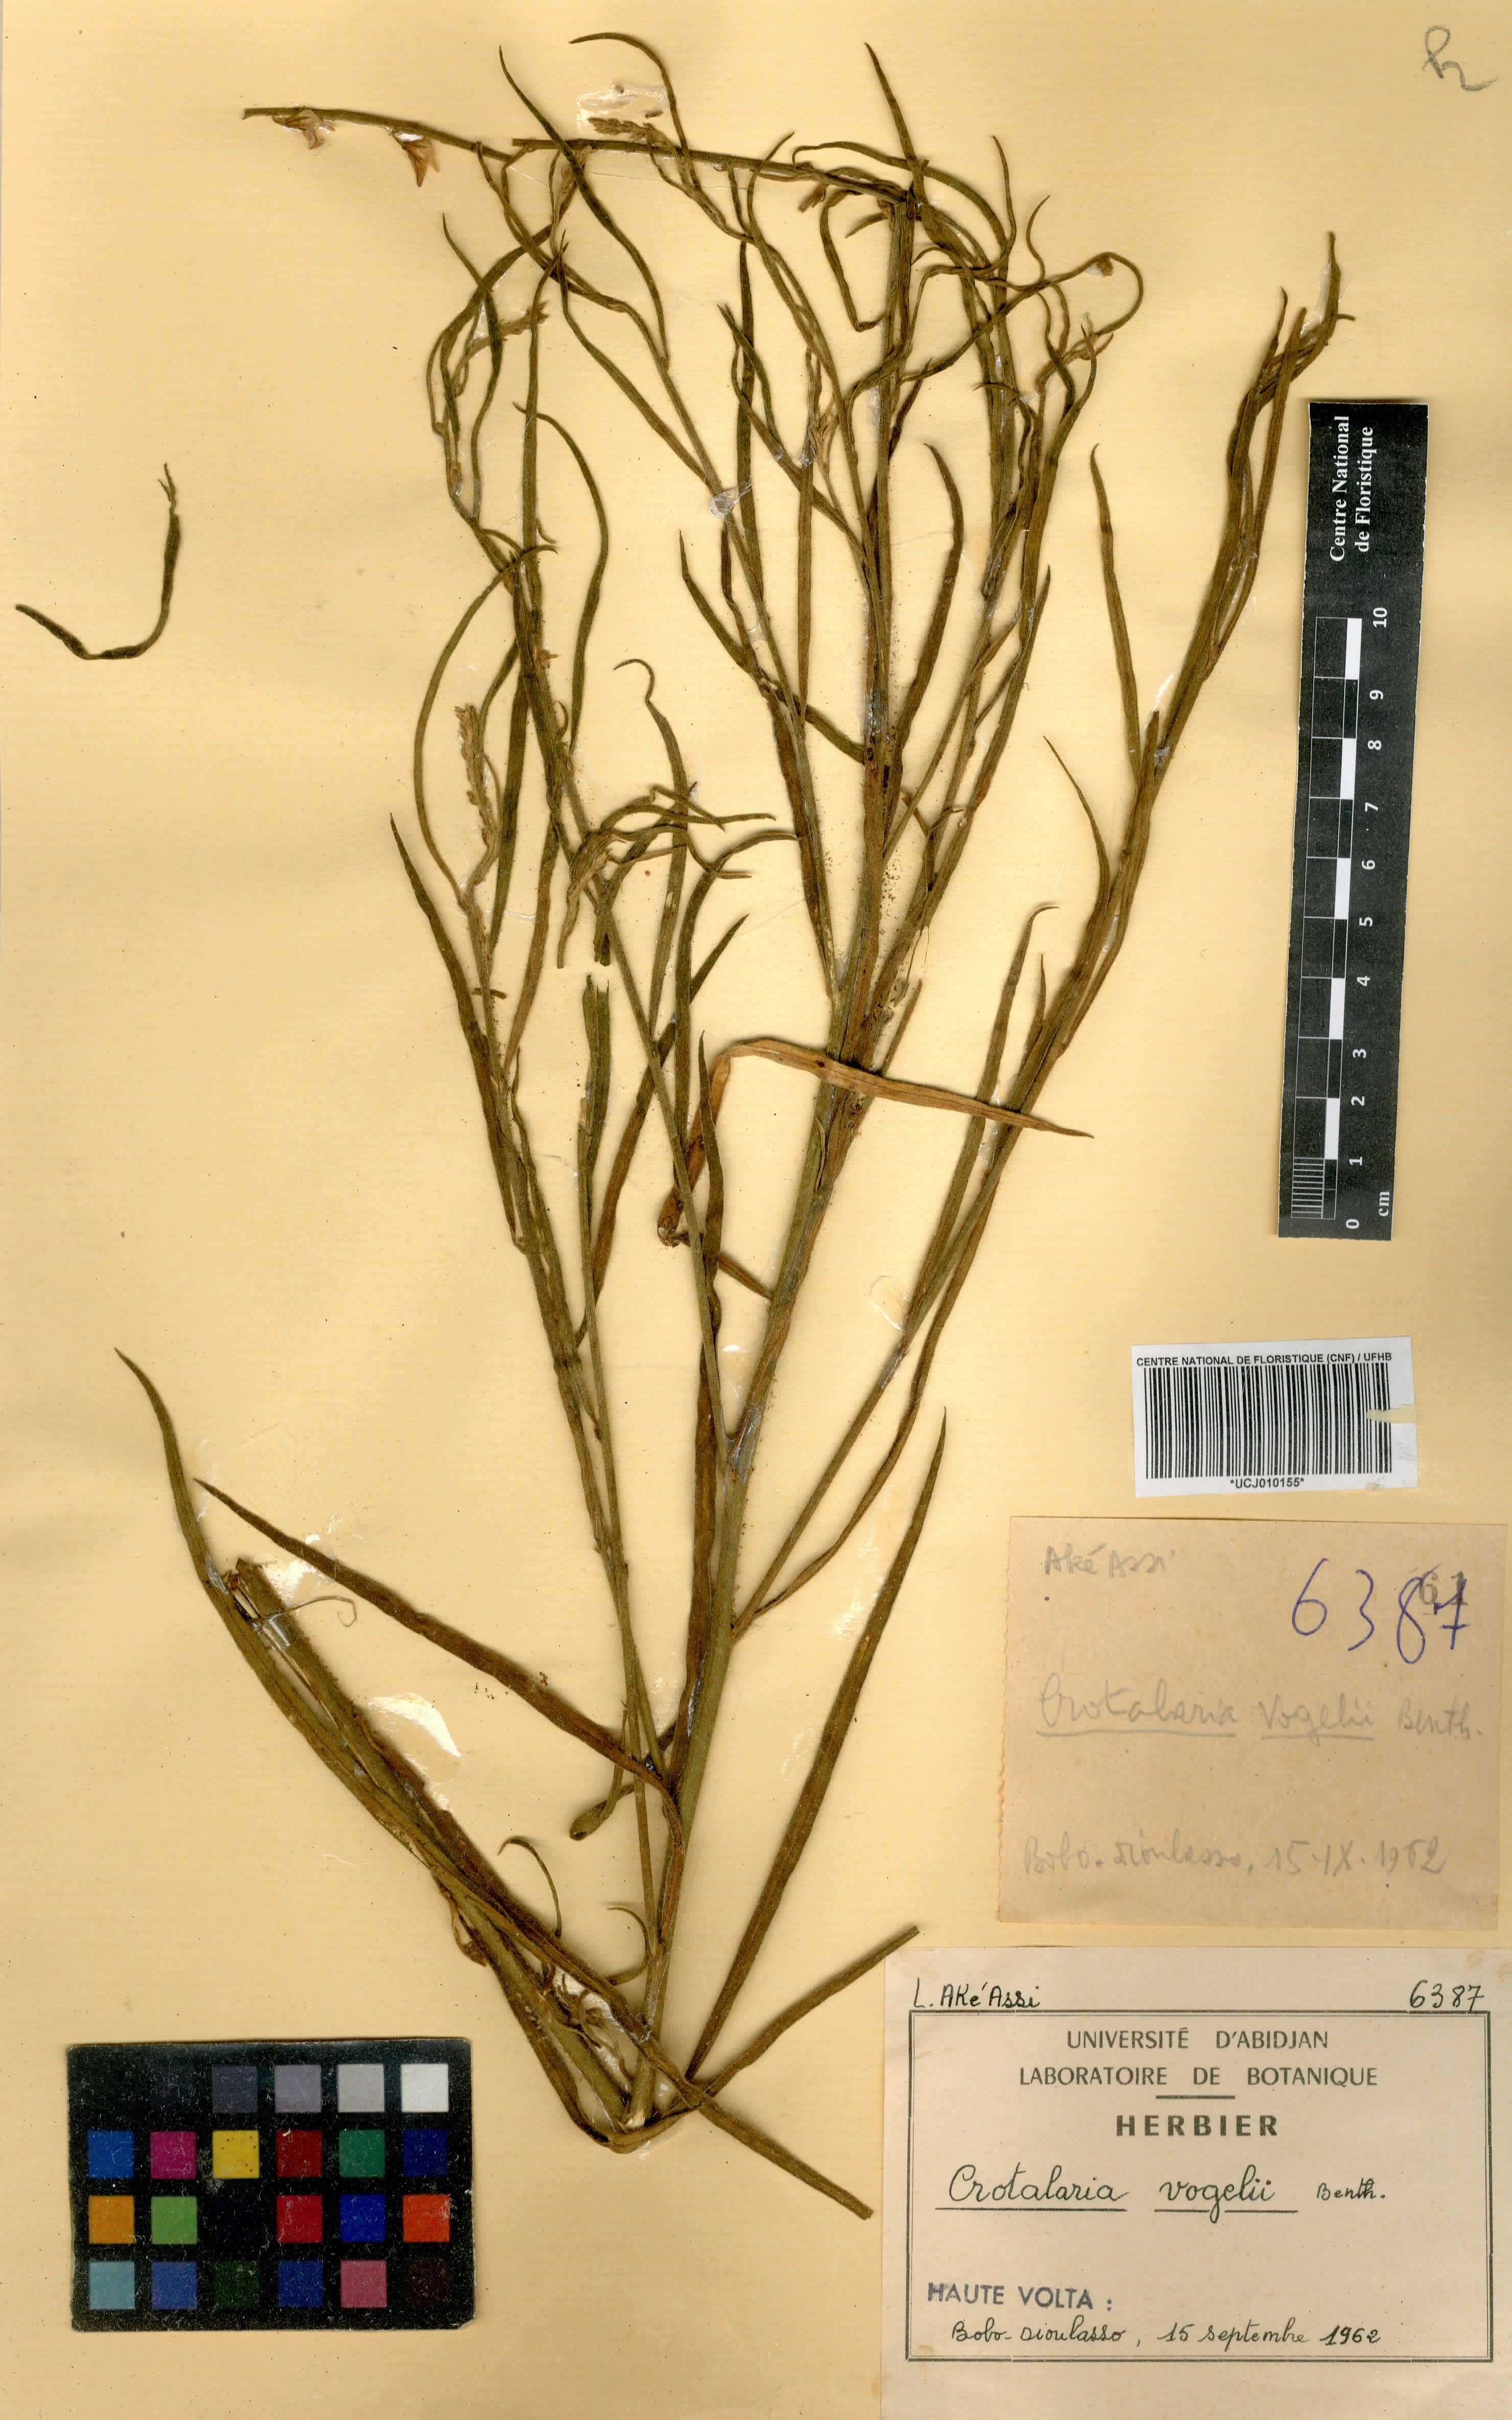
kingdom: Plantae
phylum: Tracheophyta
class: Magnoliopsida
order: Fabales
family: Fabaceae
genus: Crotalaria
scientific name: Crotalaria leprieurii
